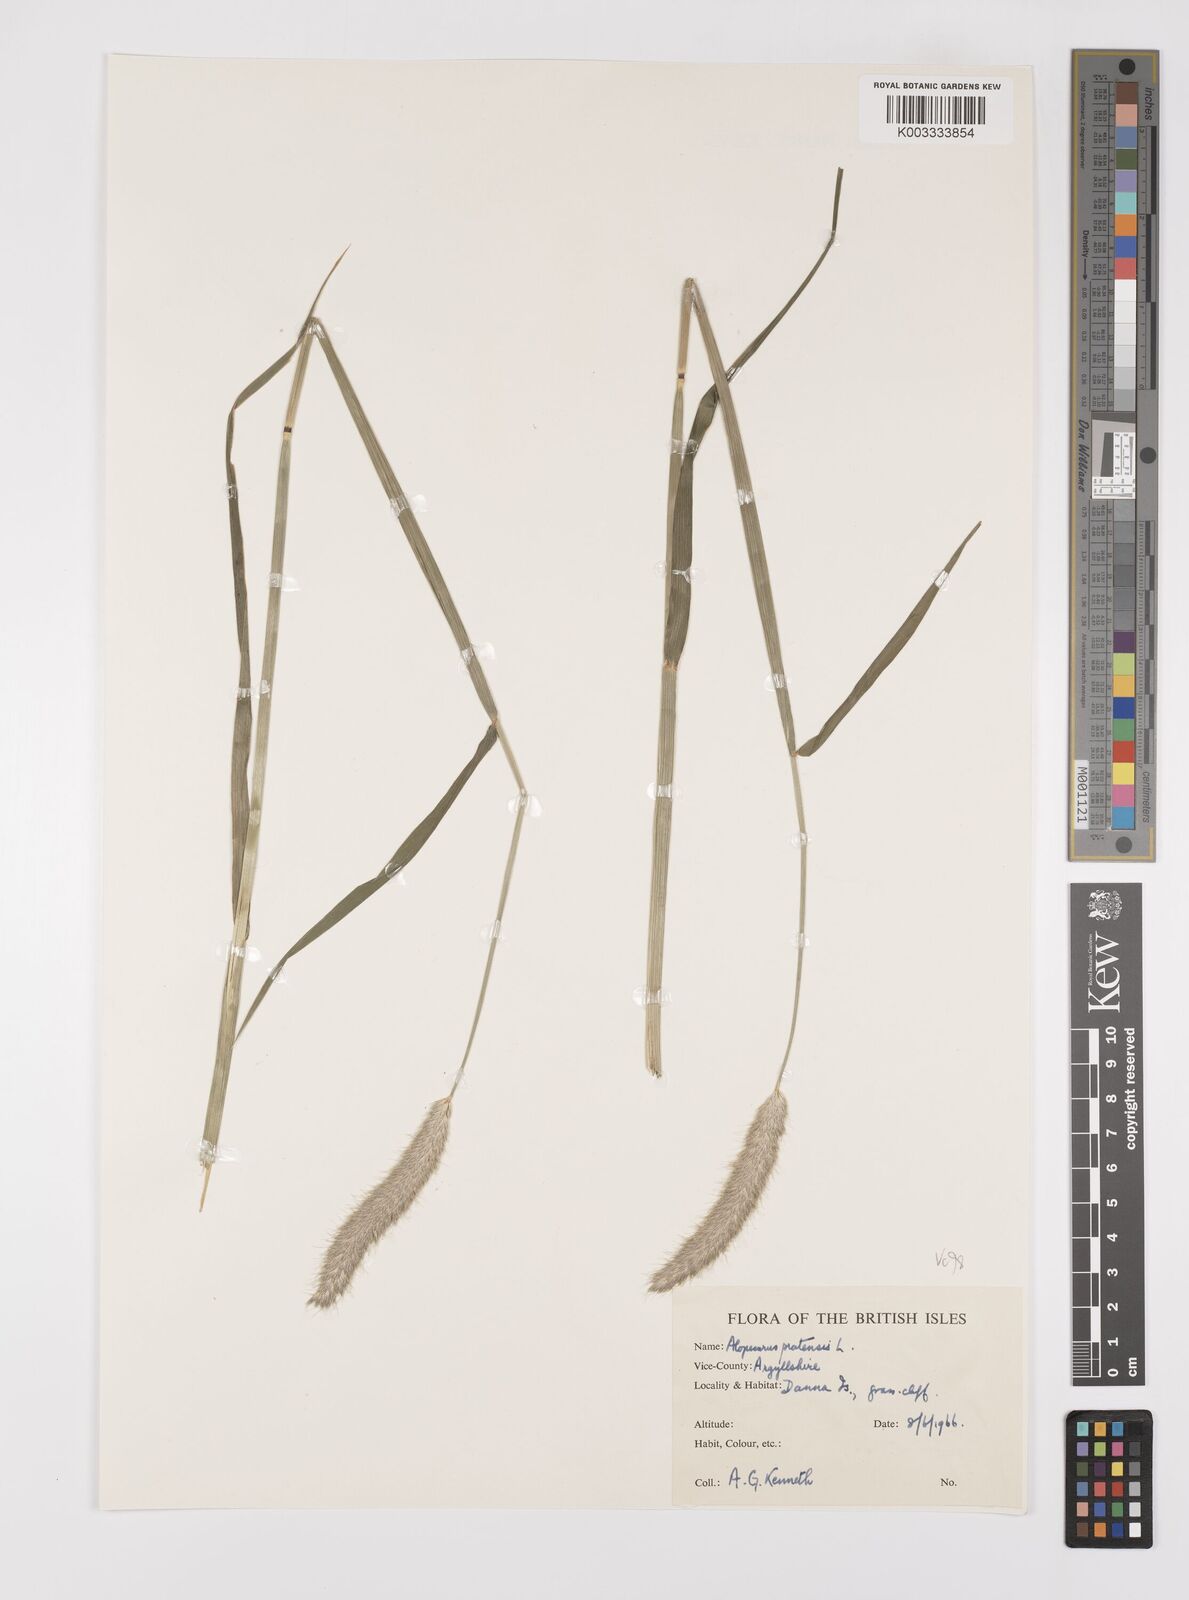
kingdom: Plantae
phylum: Tracheophyta
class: Liliopsida
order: Poales
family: Poaceae
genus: Alopecurus
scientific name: Alopecurus pratensis
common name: Meadow foxtail
